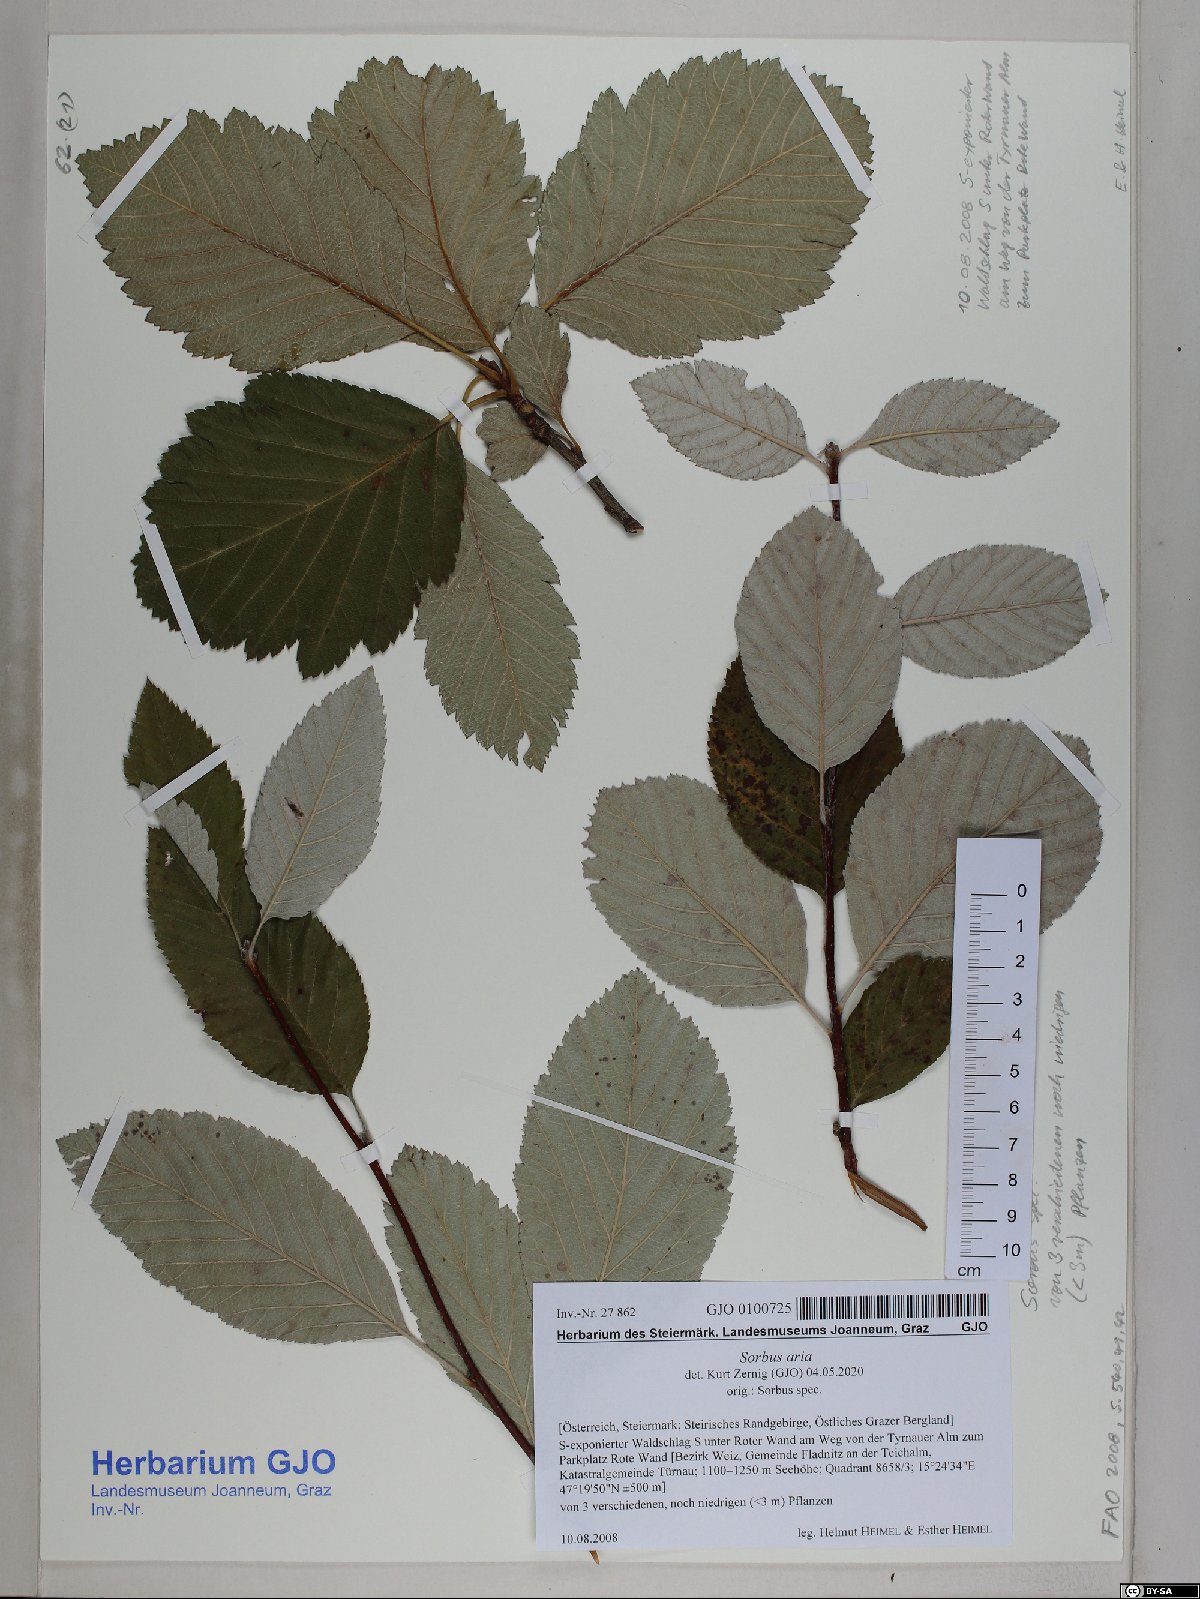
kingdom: Plantae
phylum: Tracheophyta
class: Magnoliopsida
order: Rosales
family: Rosaceae
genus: Aria
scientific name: Aria edulis
